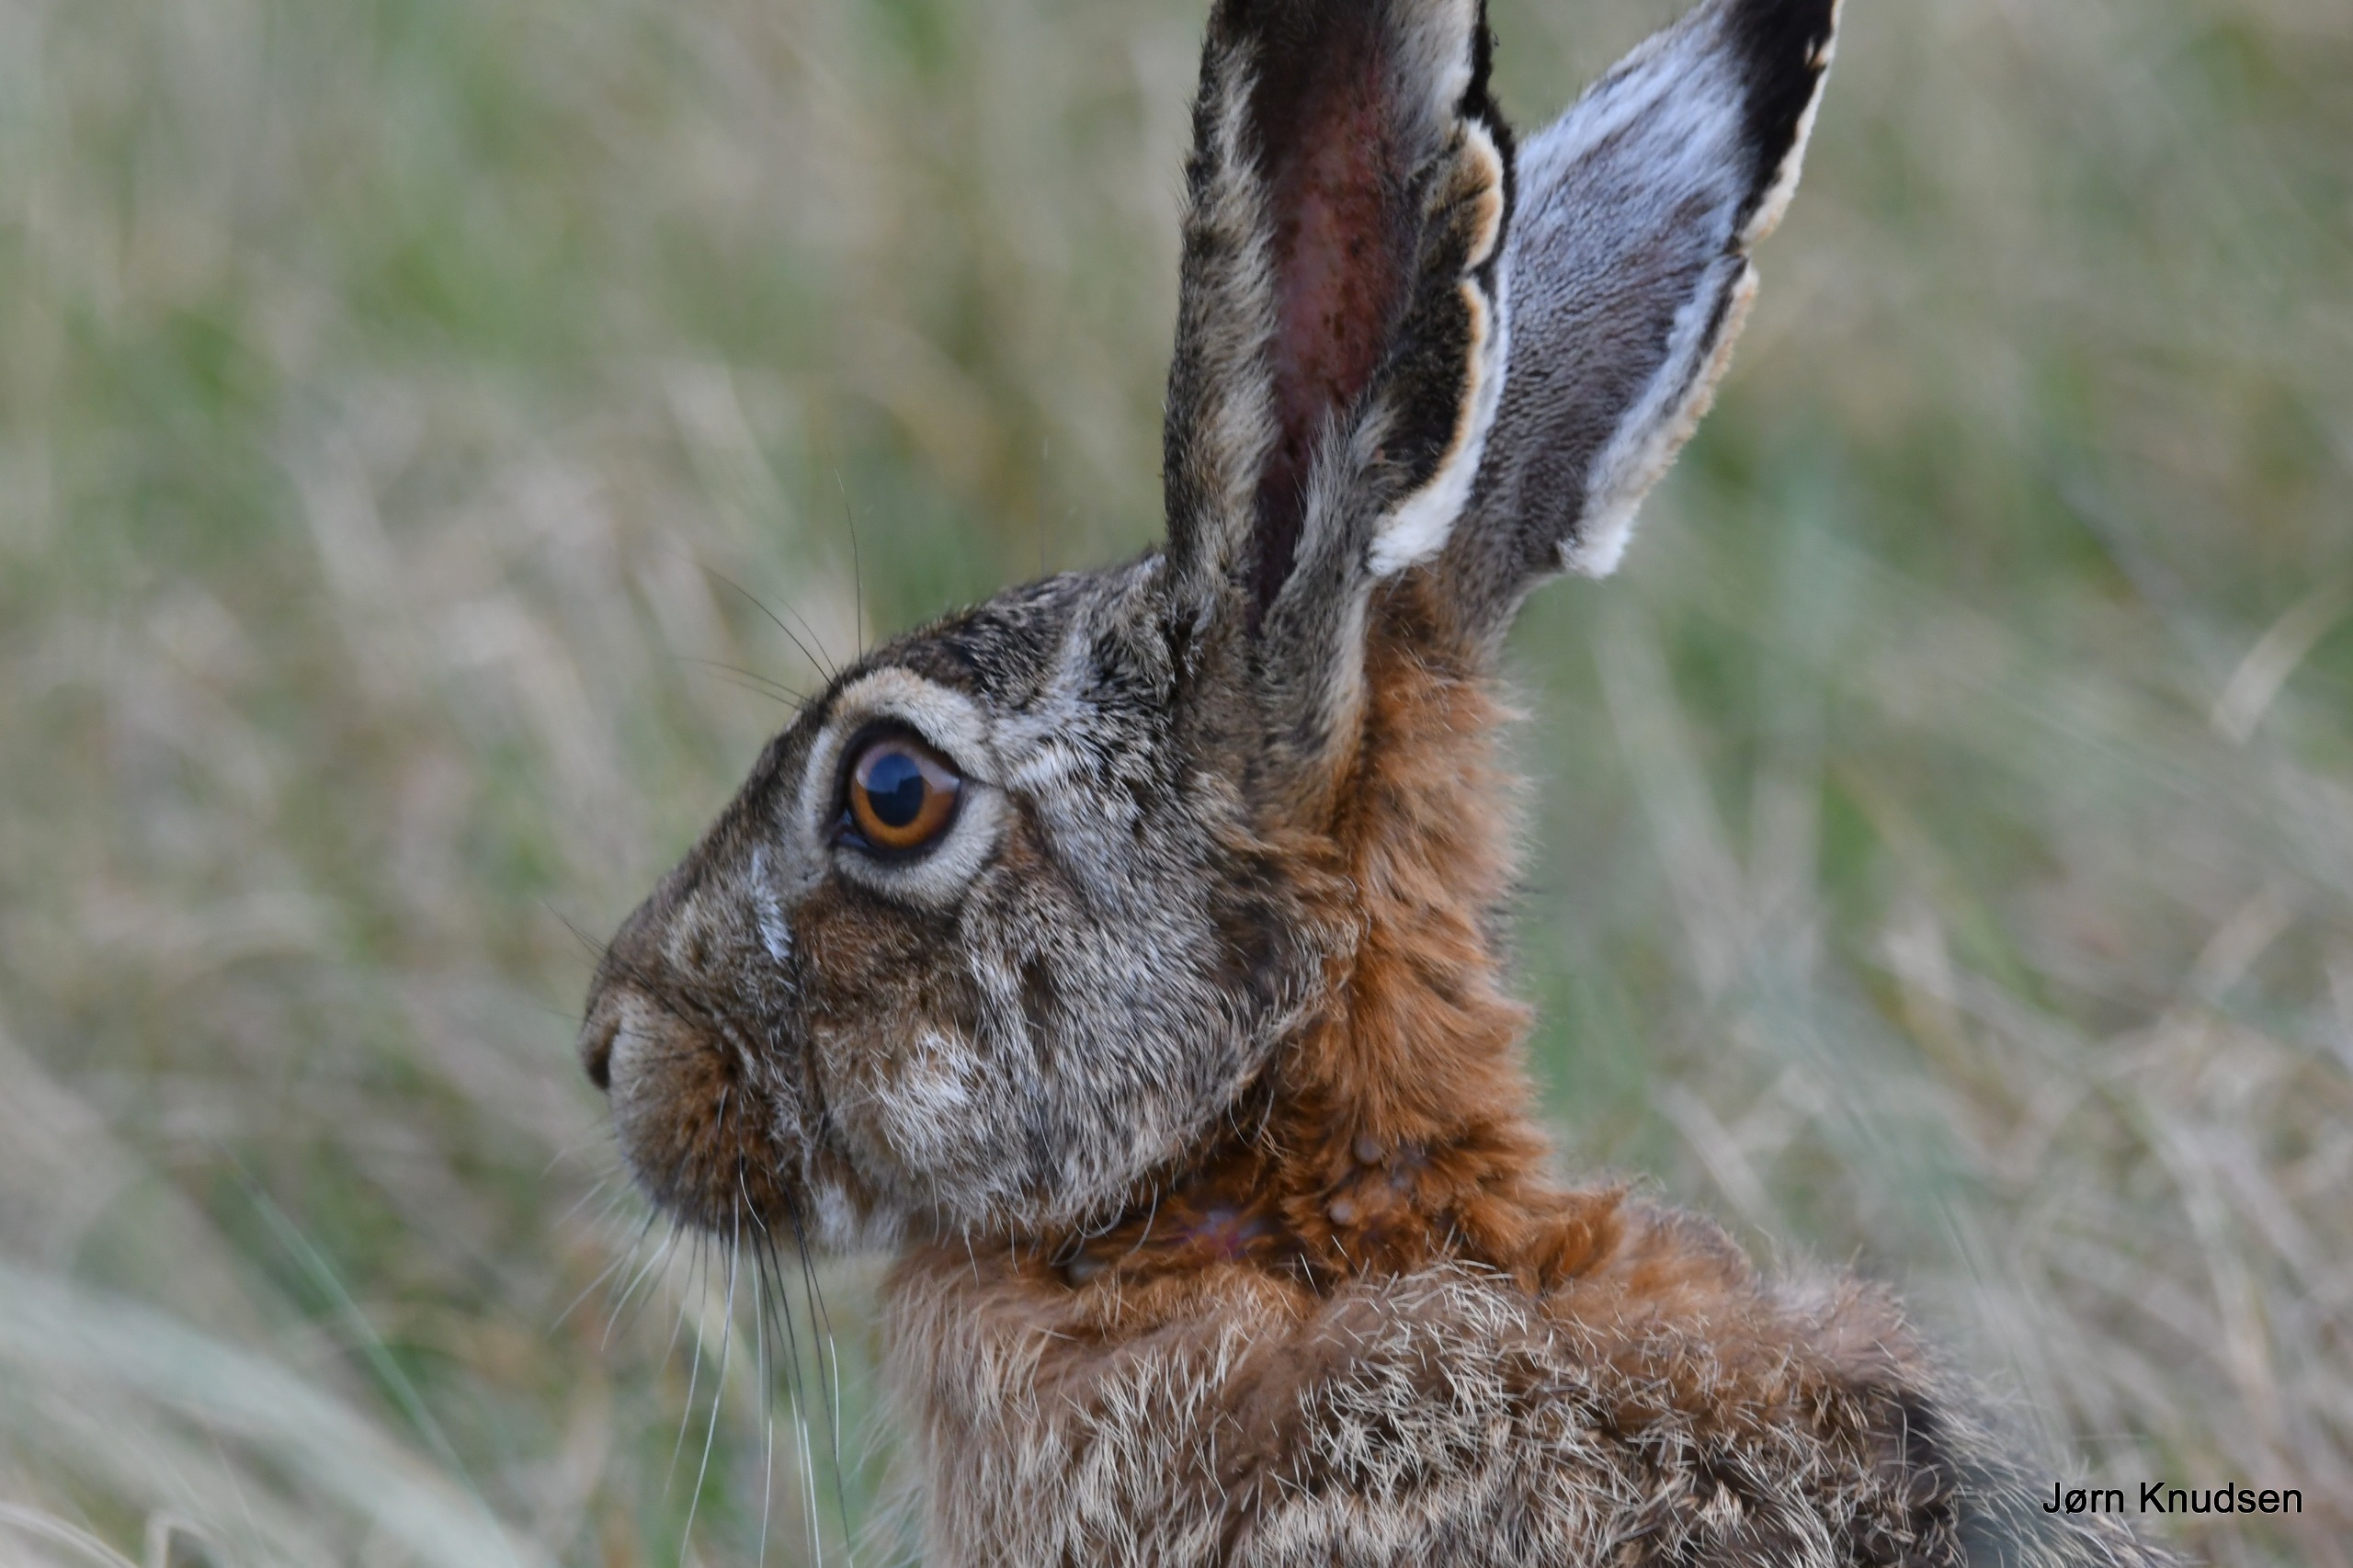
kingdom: Animalia
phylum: Chordata
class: Mammalia
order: Lagomorpha
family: Leporidae
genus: Lepus
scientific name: Lepus europaeus
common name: Hare
